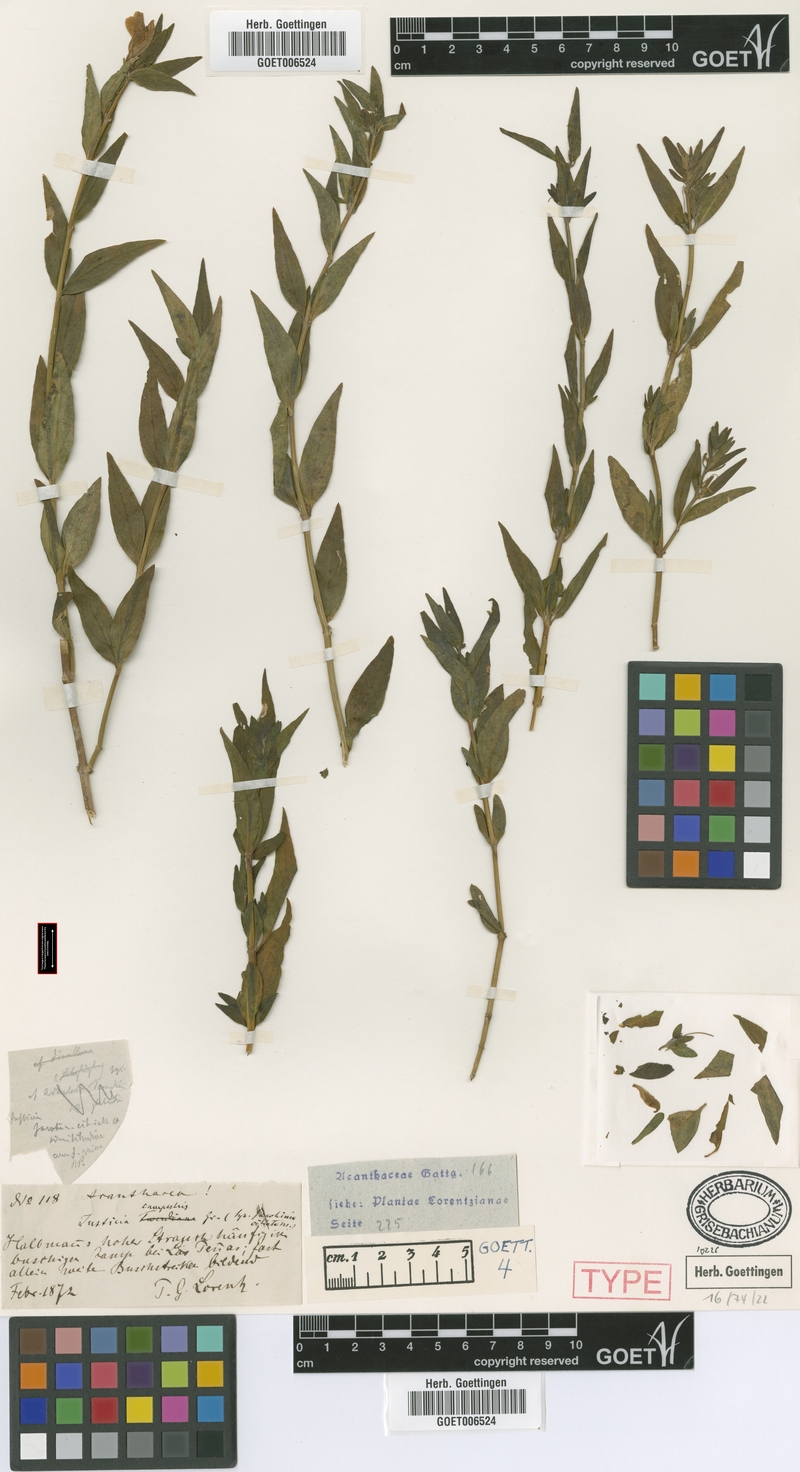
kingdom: Plantae
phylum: Tracheophyta
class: Magnoliopsida
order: Lamiales
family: Acanthaceae
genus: Justicia
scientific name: Justicia tweediana
